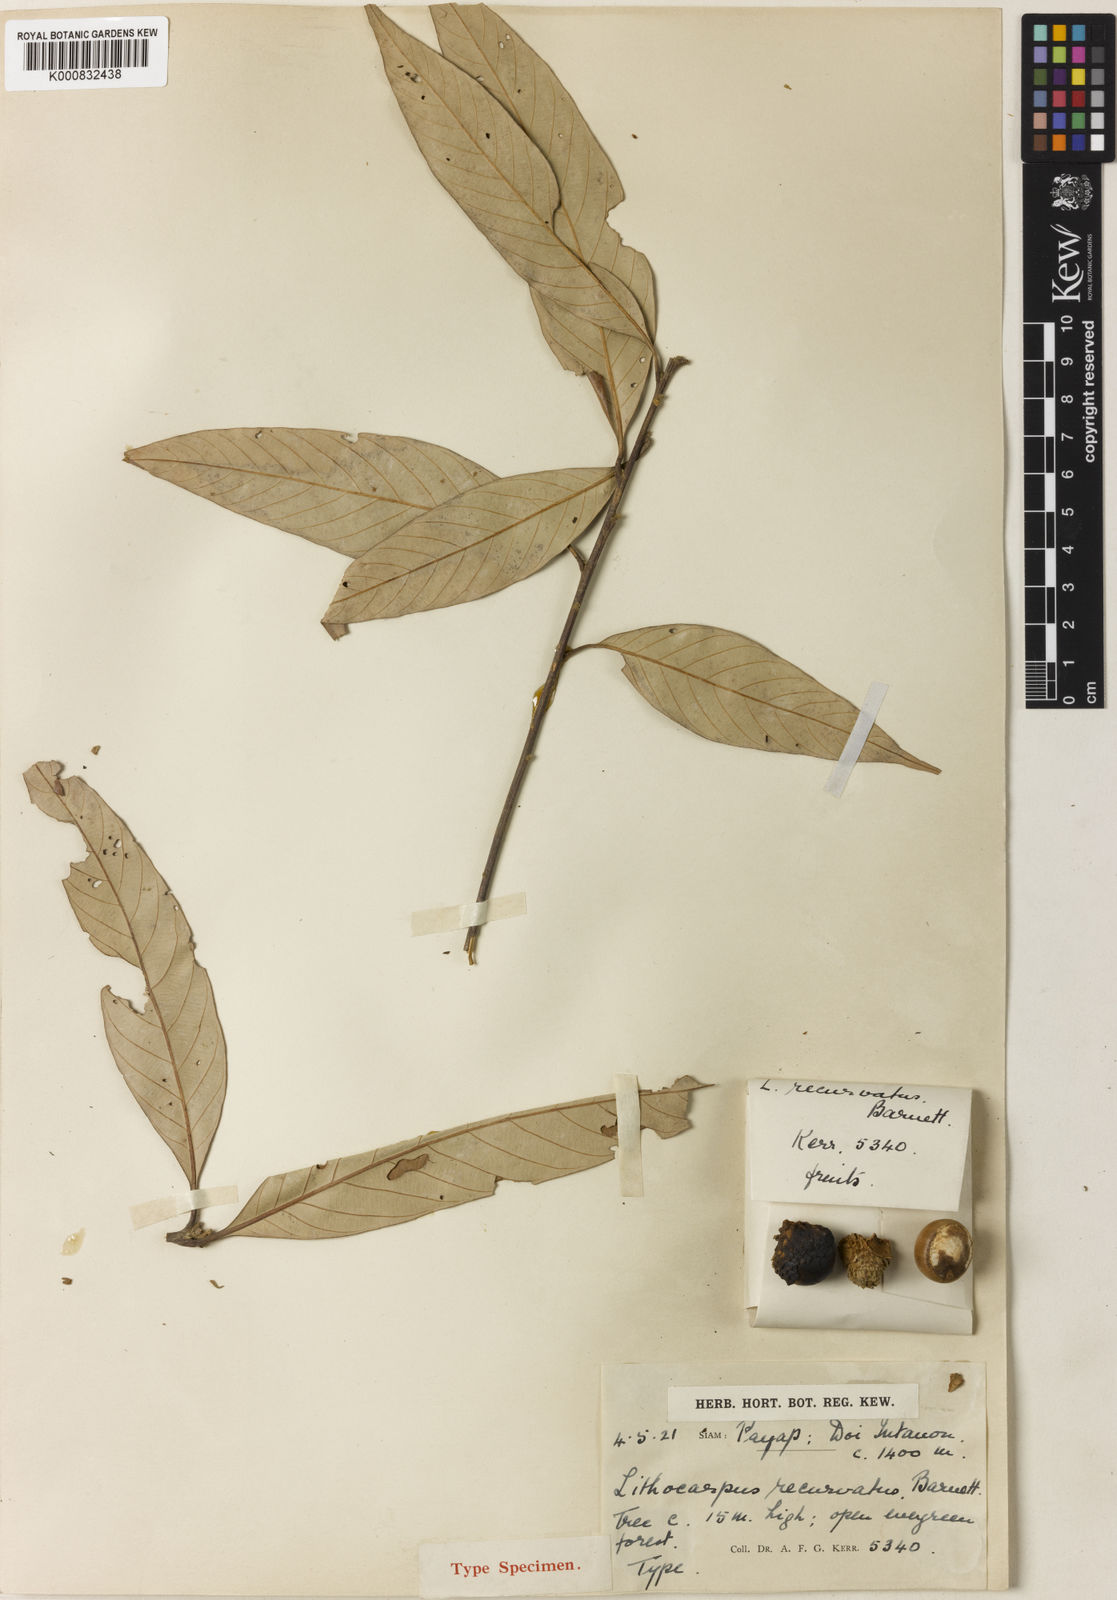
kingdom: Plantae
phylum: Tracheophyta
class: Magnoliopsida
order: Fagales
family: Fagaceae
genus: Lithocarpus
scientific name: Lithocarpus recurvatus
